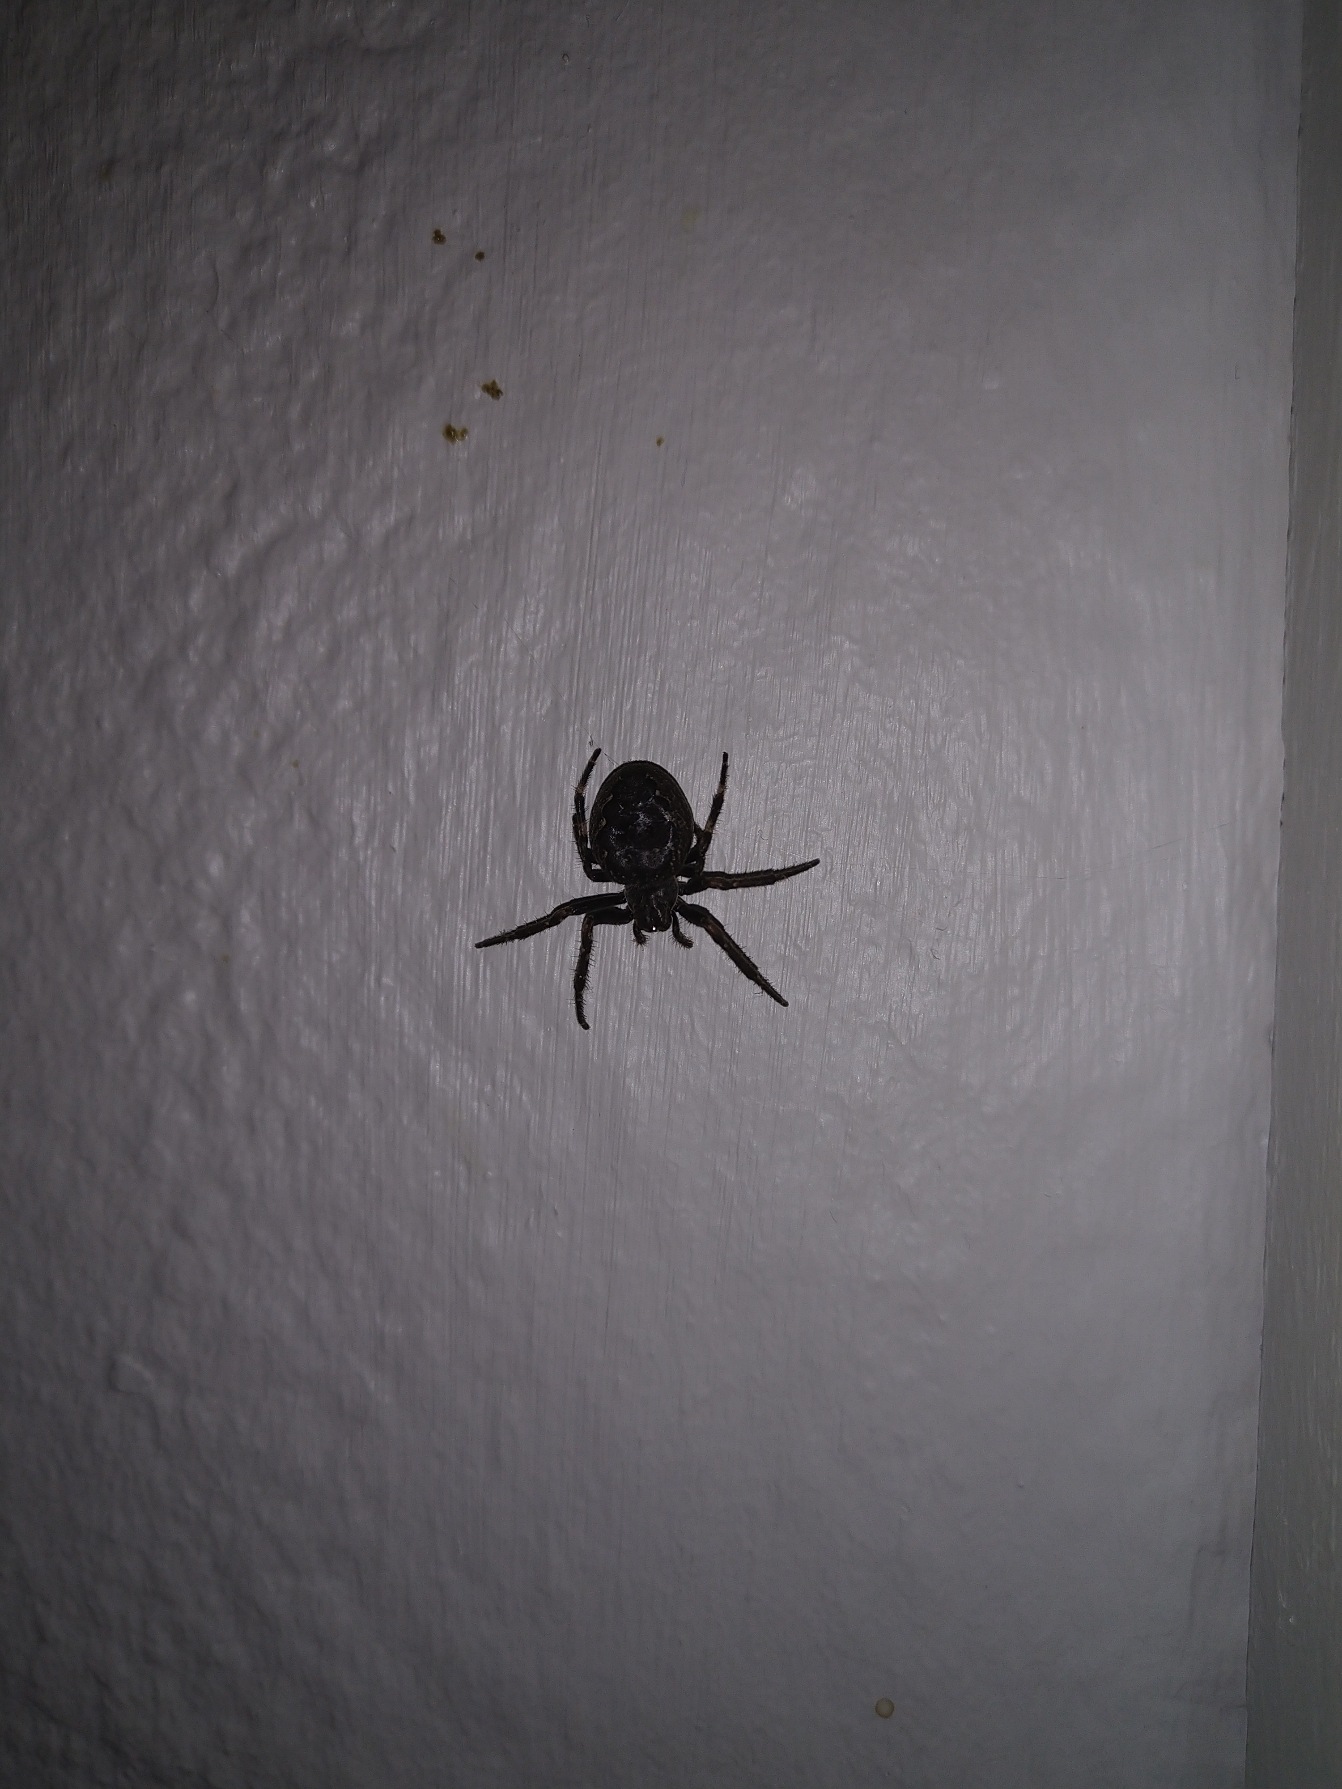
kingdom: Animalia
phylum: Arthropoda
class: Arachnida
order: Araneae
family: Araneidae
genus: Nuctenea
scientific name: Nuctenea umbratica
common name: Flad hjulspinder
